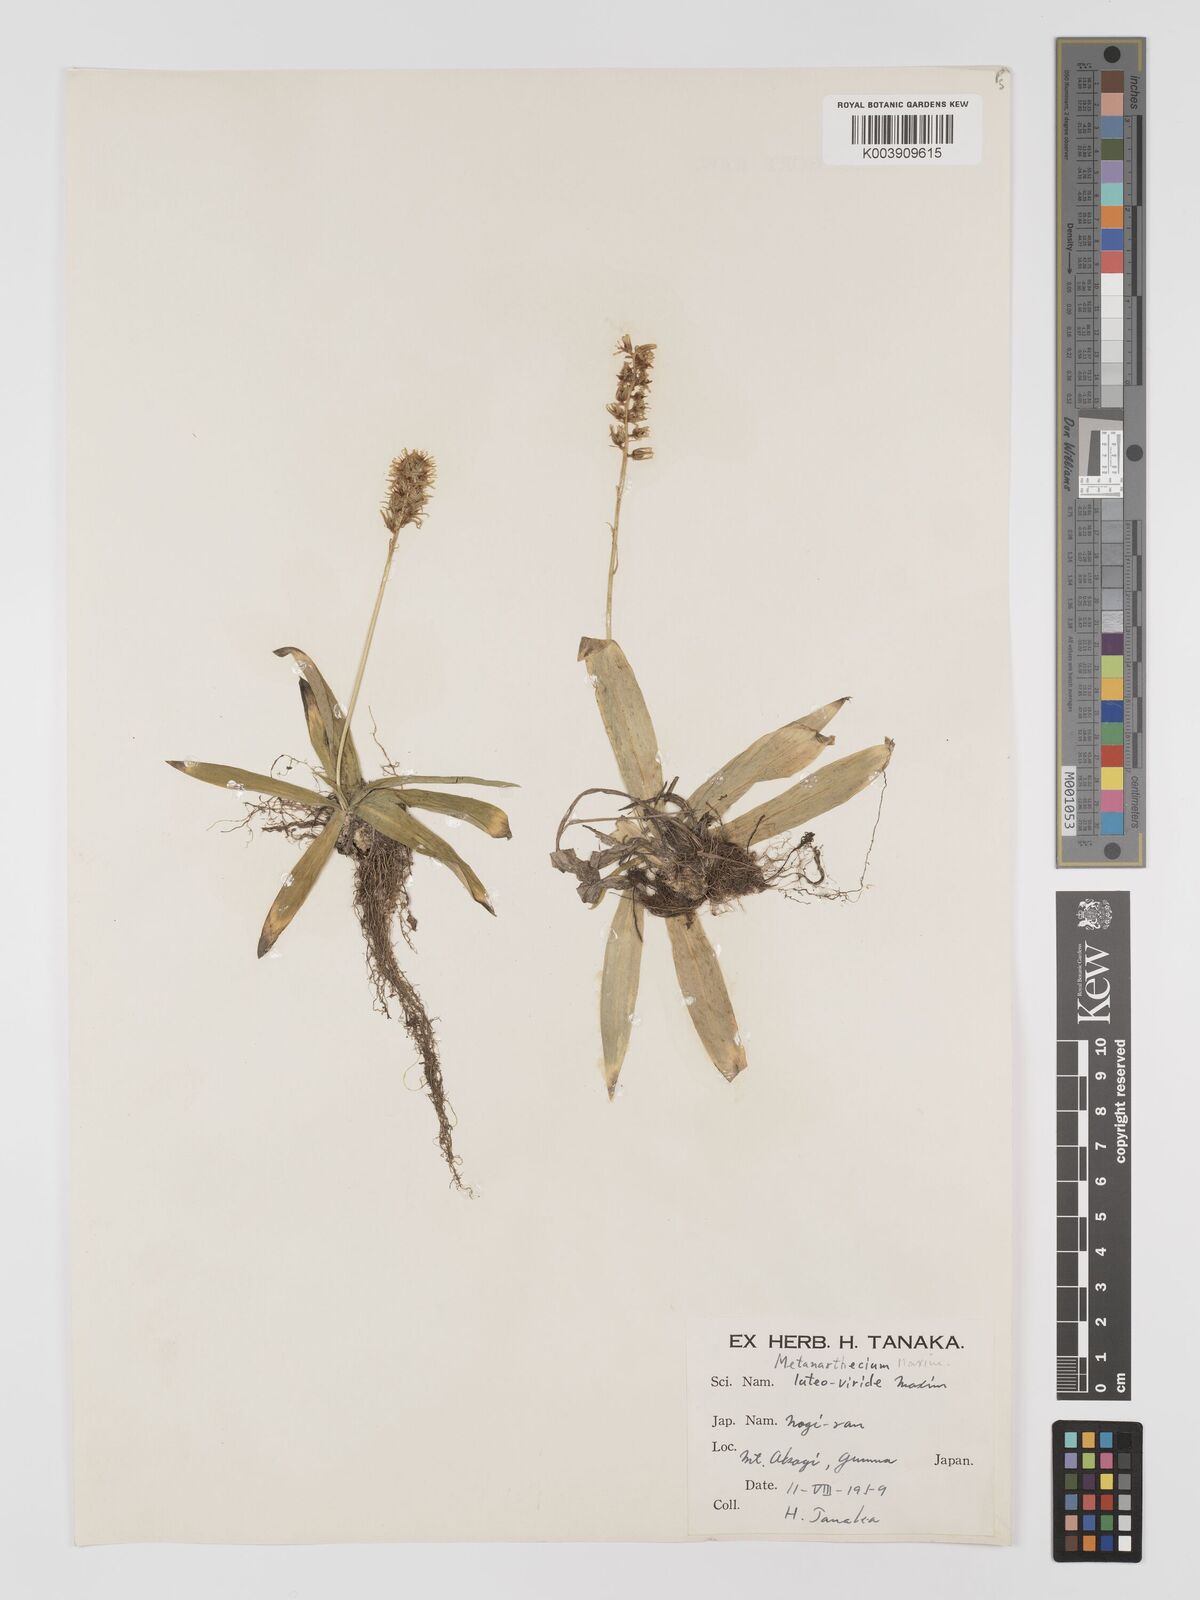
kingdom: Plantae
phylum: Tracheophyta
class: Liliopsida
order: Dioscoreales
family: Nartheciaceae
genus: Metanarthecium
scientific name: Metanarthecium luteoviride
